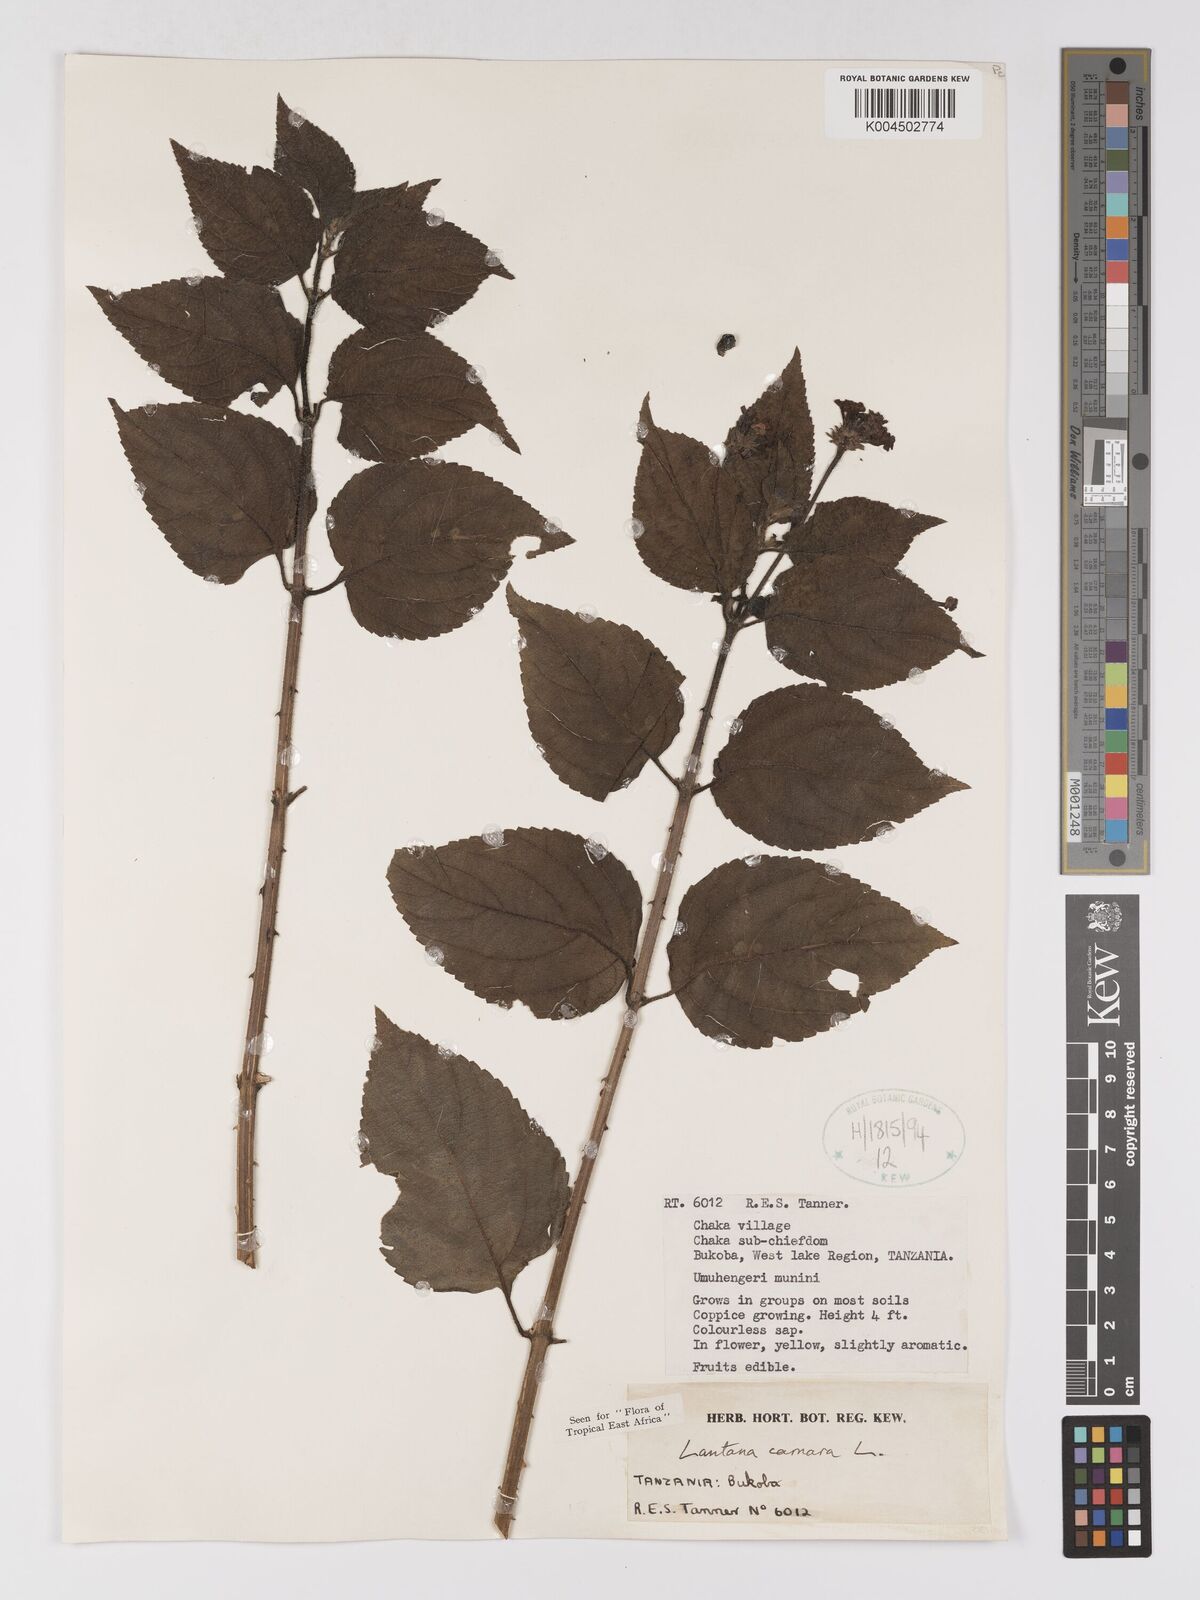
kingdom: Plantae
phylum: Tracheophyta
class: Magnoliopsida
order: Lamiales
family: Verbenaceae
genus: Lantana
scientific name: Lantana camara
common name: Lantana
